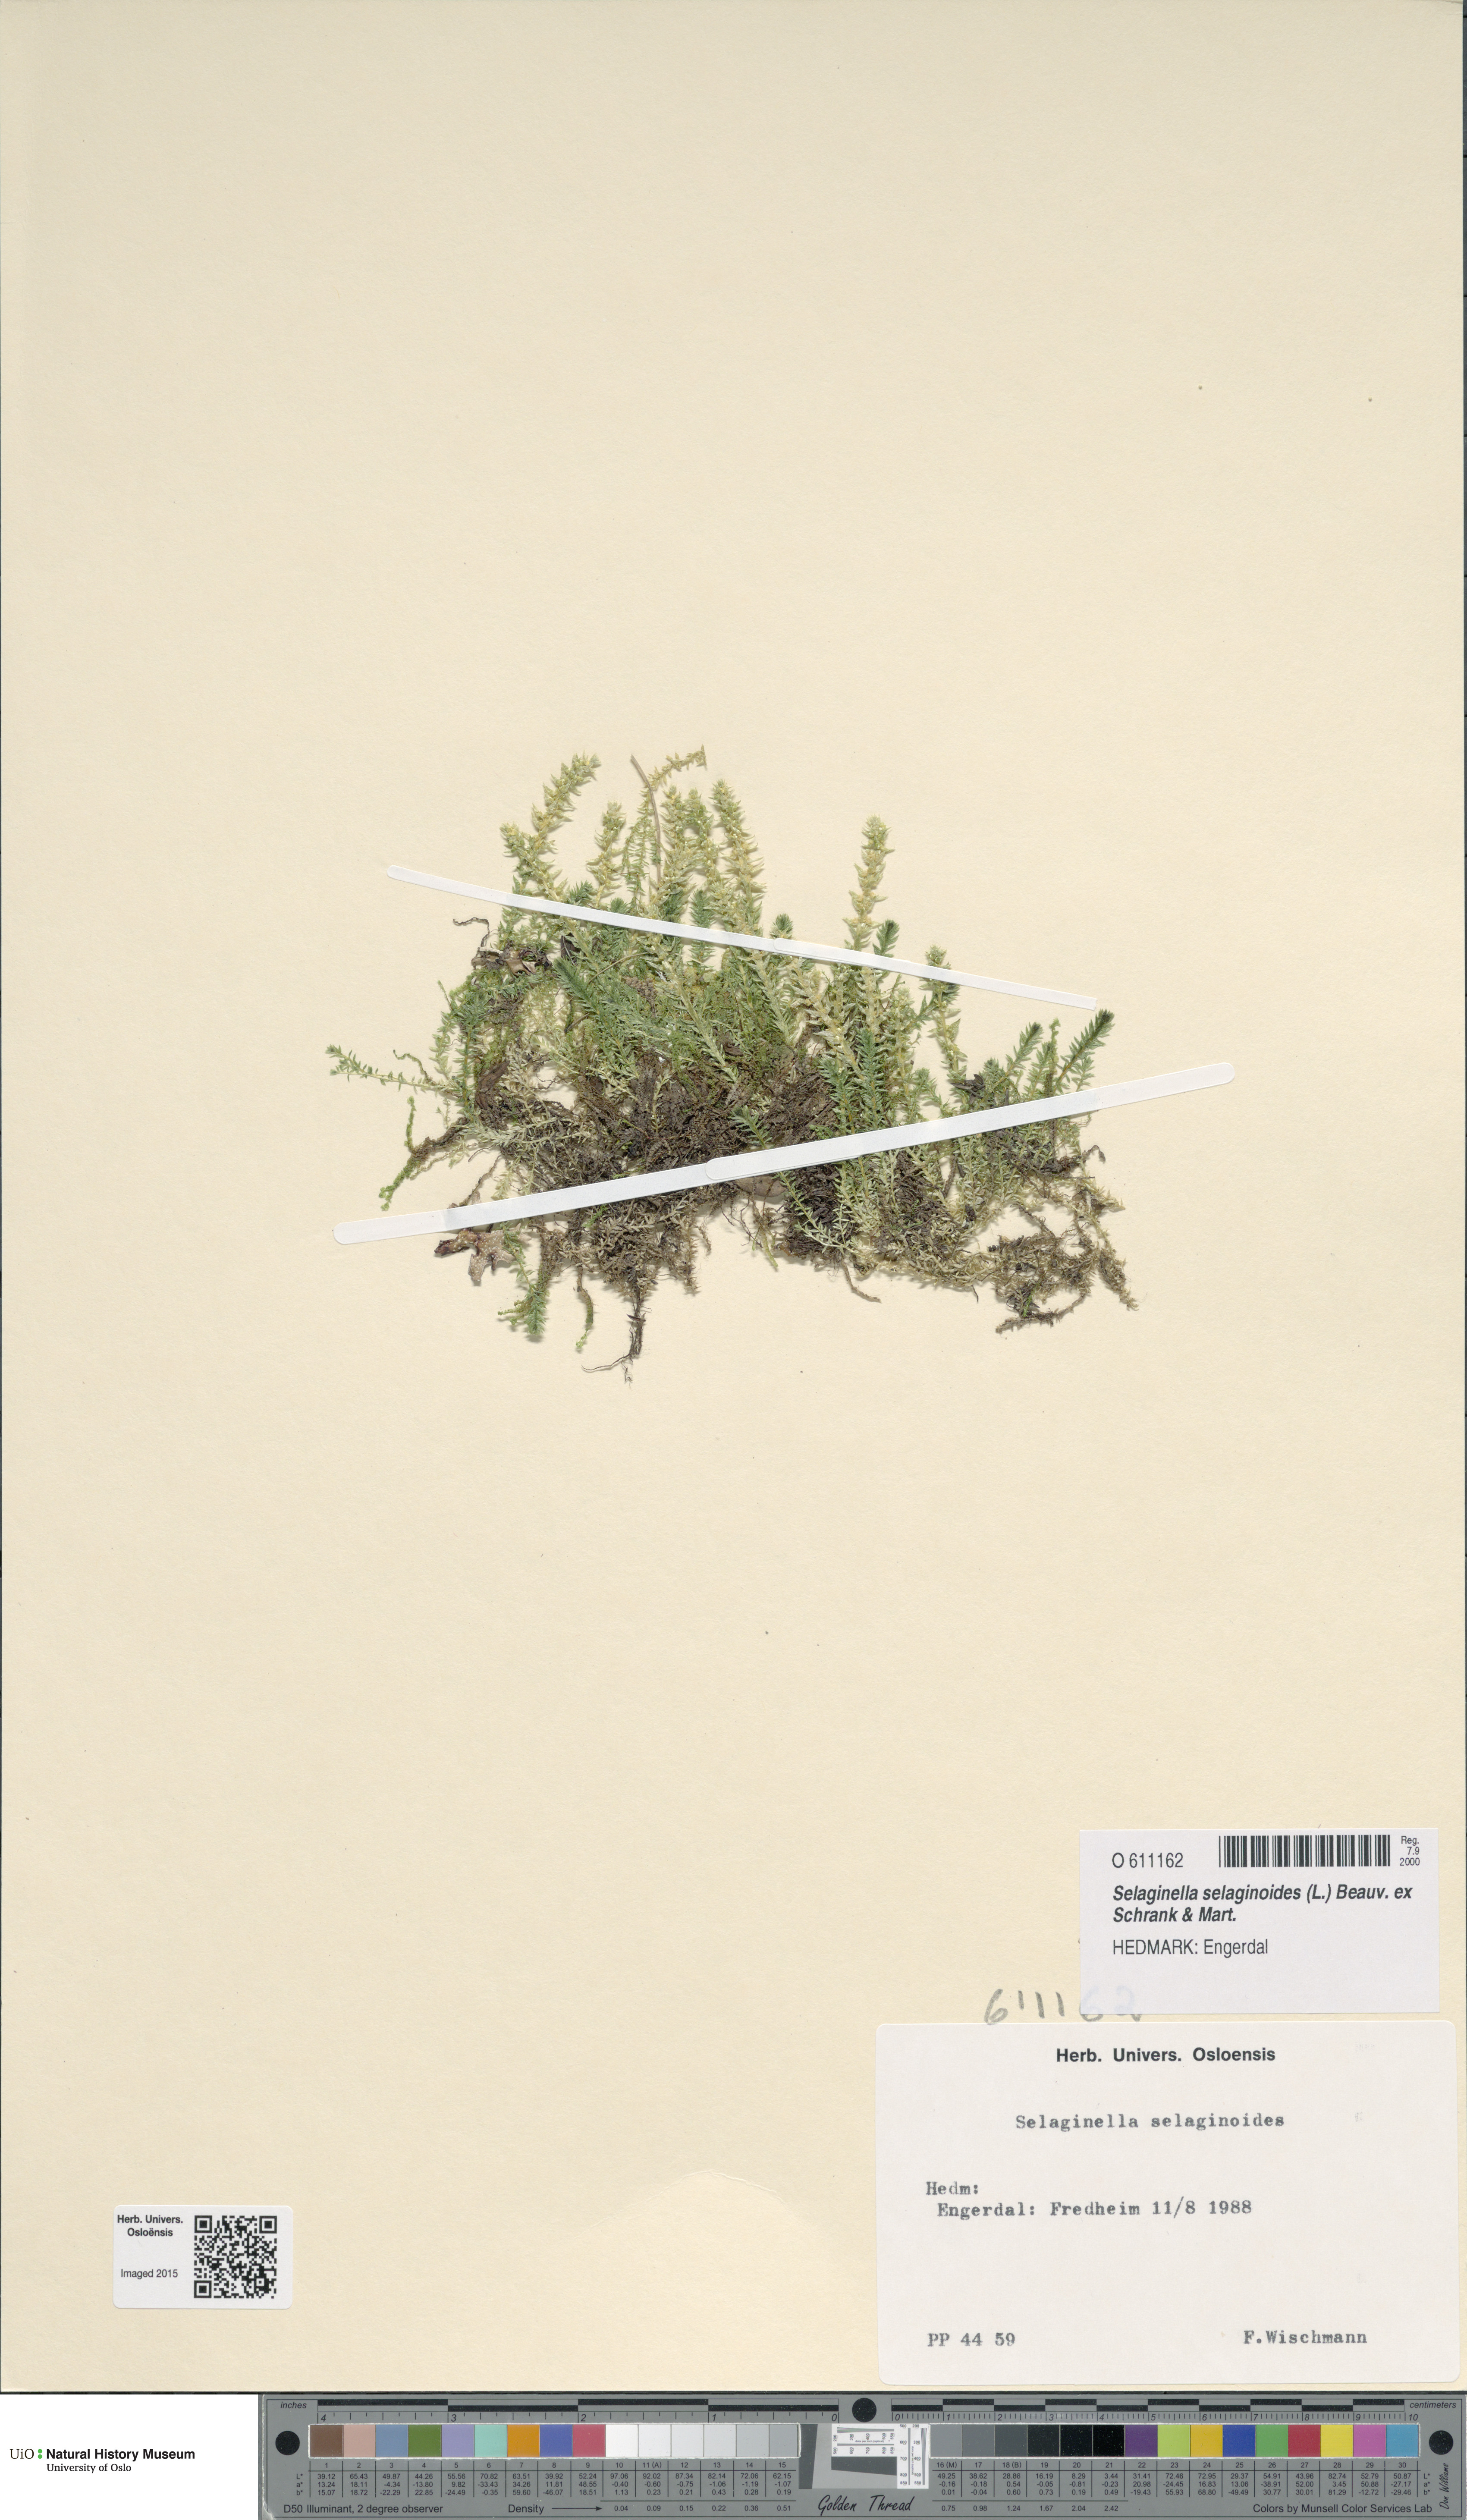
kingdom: Plantae
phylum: Tracheophyta
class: Lycopodiopsida
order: Selaginellales
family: Selaginellaceae
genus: Selaginella
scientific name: Selaginella selaginoides
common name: Prickly mountain-moss
